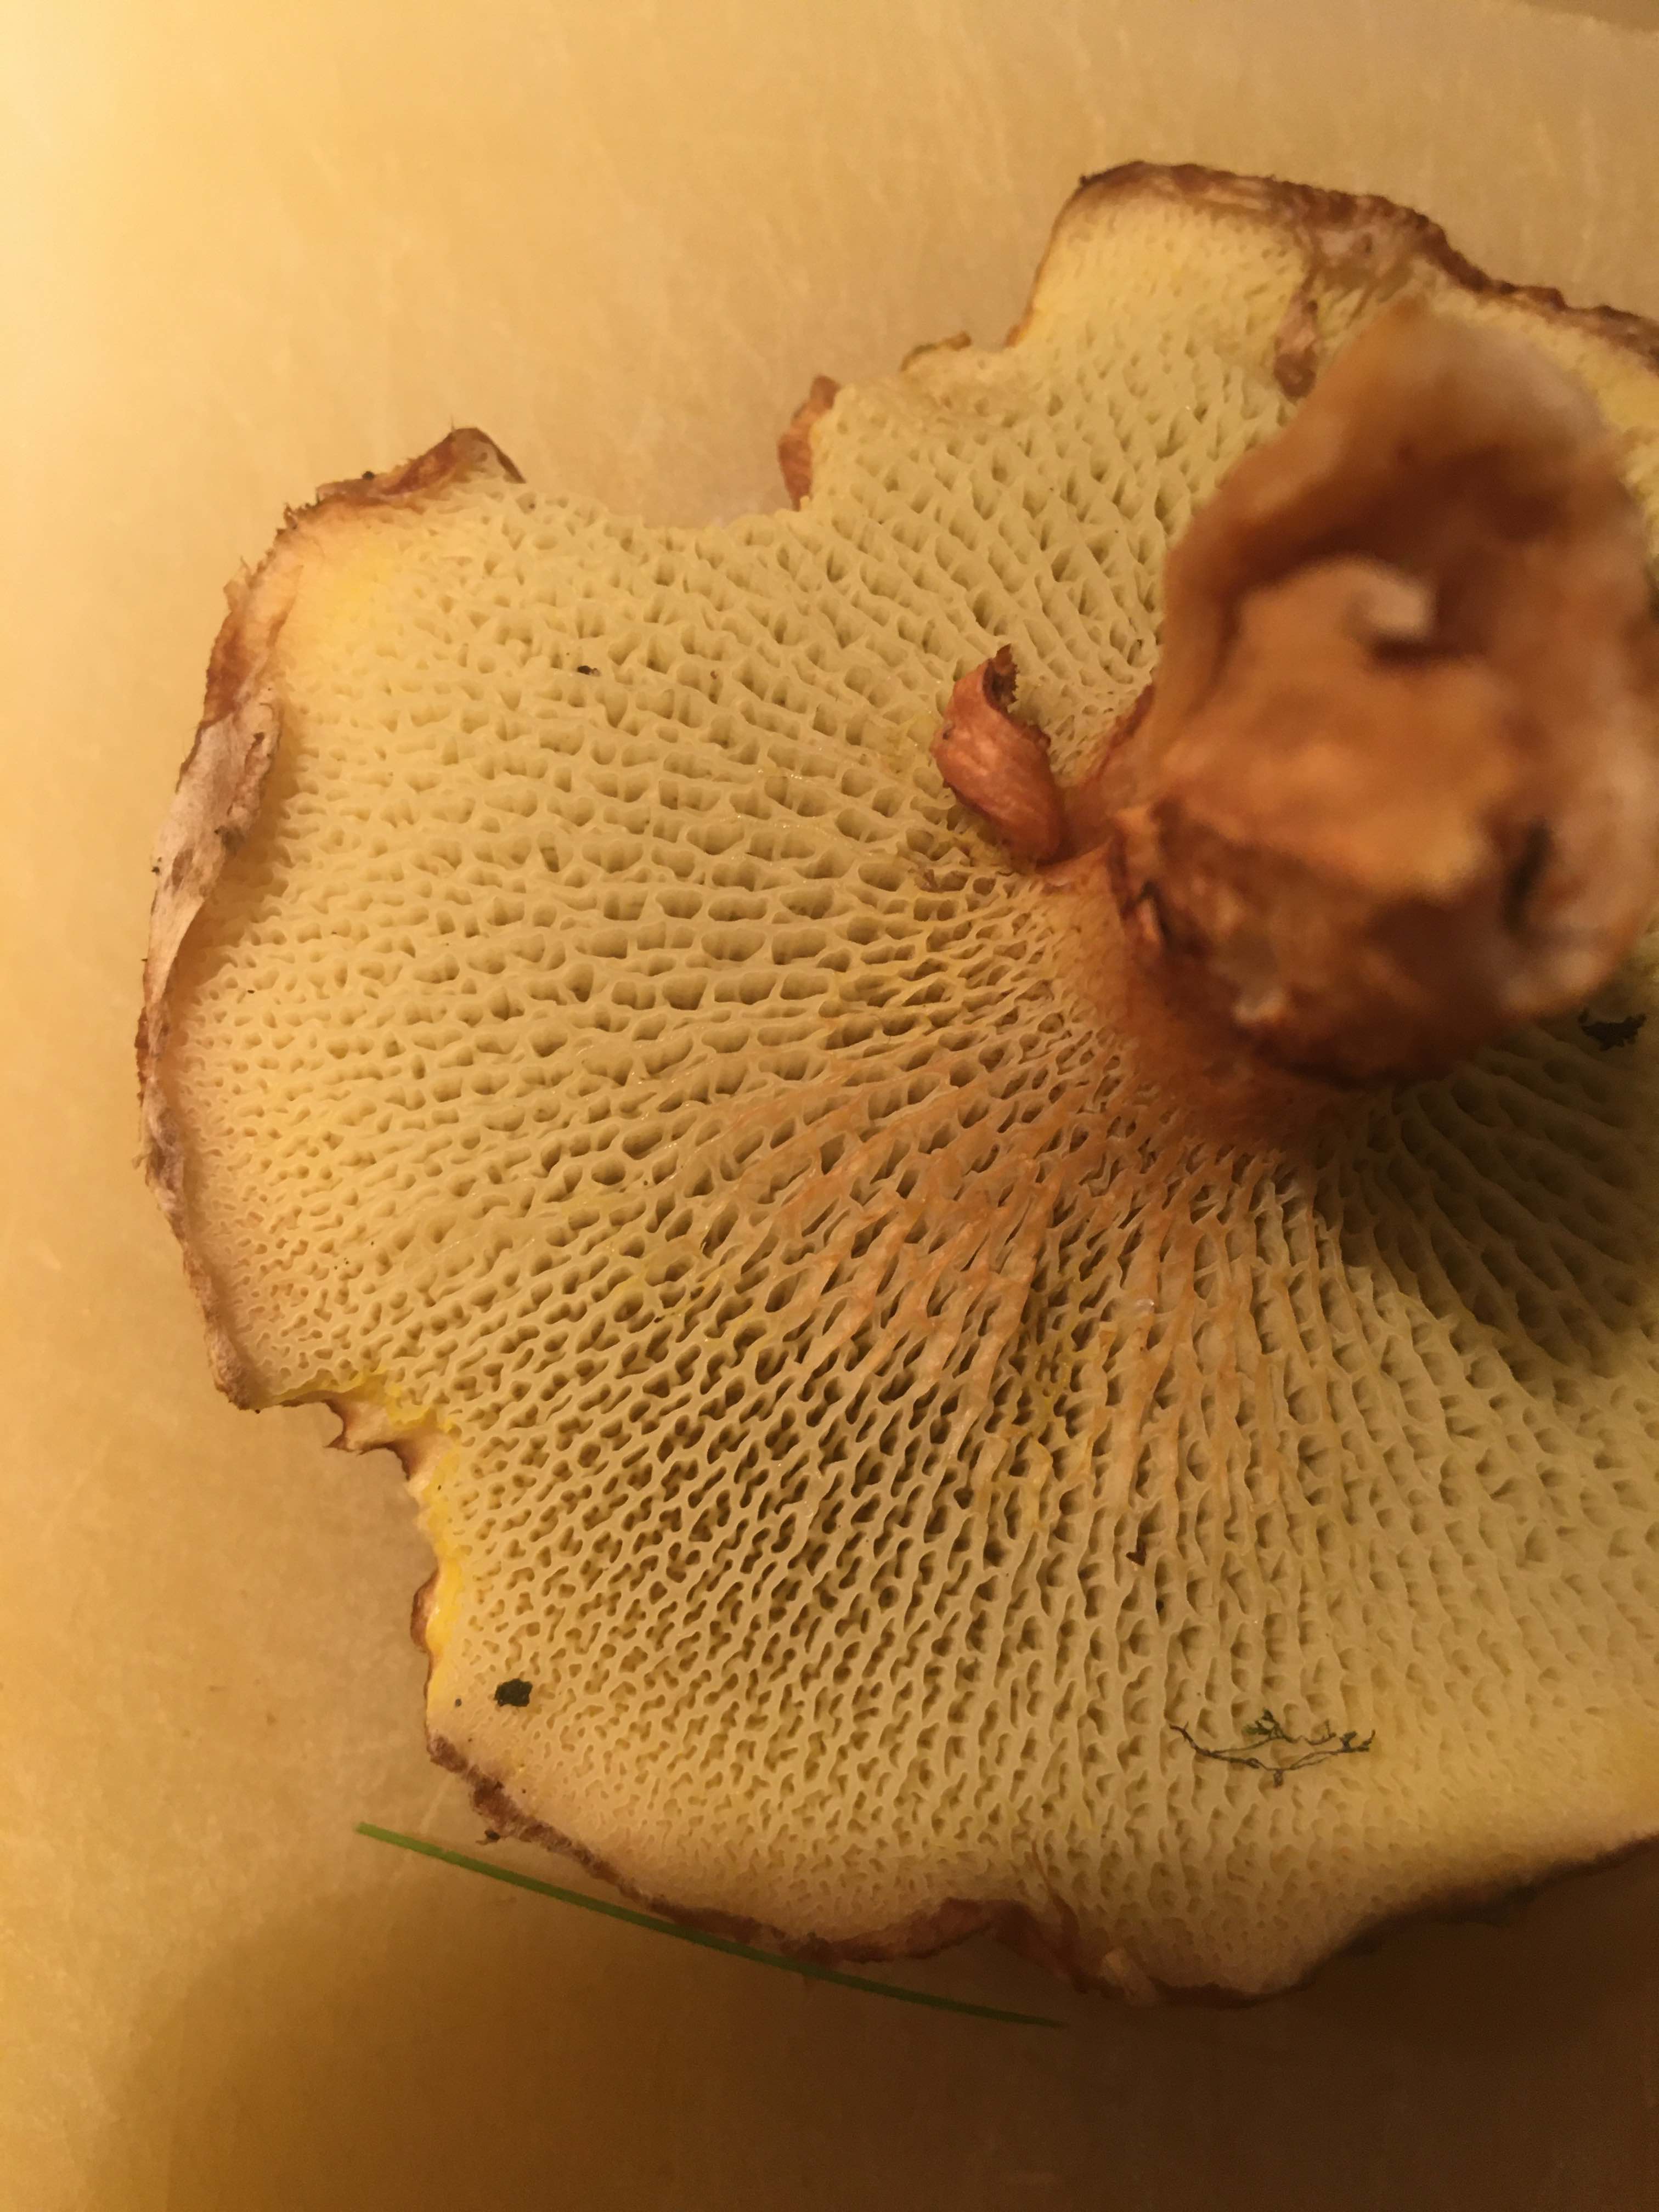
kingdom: Fungi
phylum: Basidiomycota
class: Agaricomycetes
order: Boletales
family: Suillaceae
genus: Suillus
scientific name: Suillus cavipes
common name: hulstokket slimrørhat
